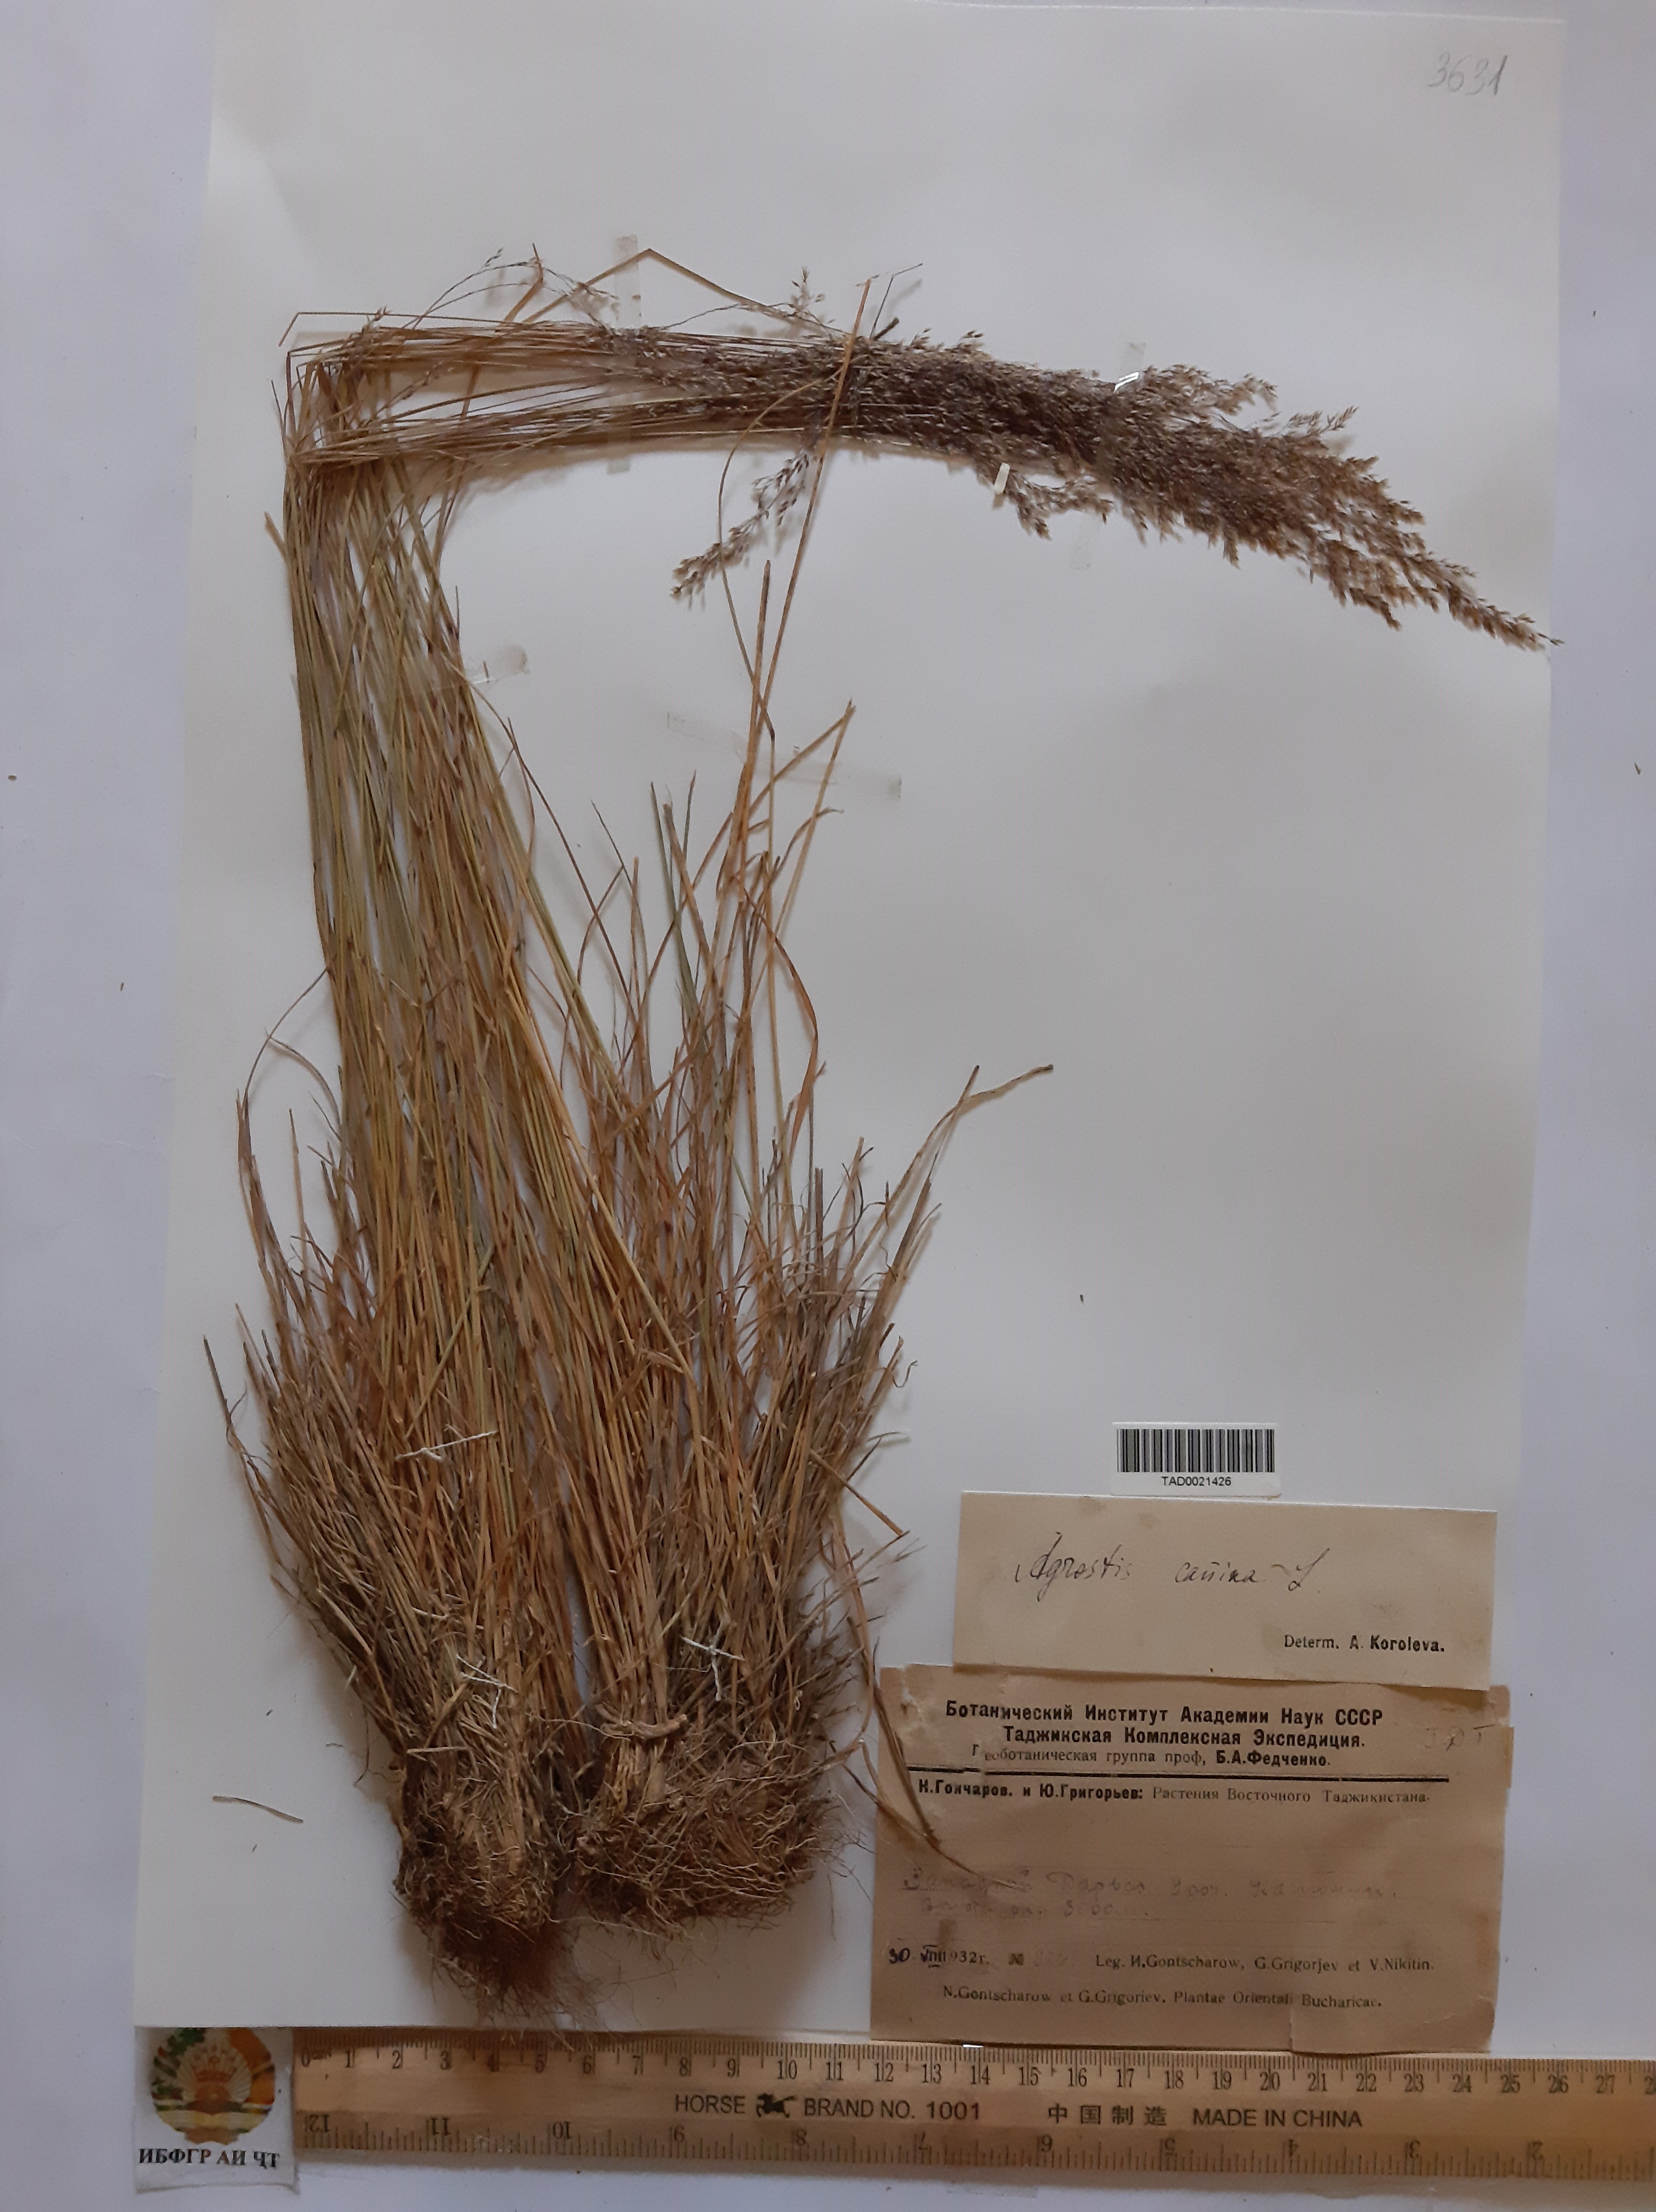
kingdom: Plantae
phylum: Tracheophyta
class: Liliopsida
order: Poales
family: Poaceae
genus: Agrostis
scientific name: Agrostis canina
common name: Velvet bent
